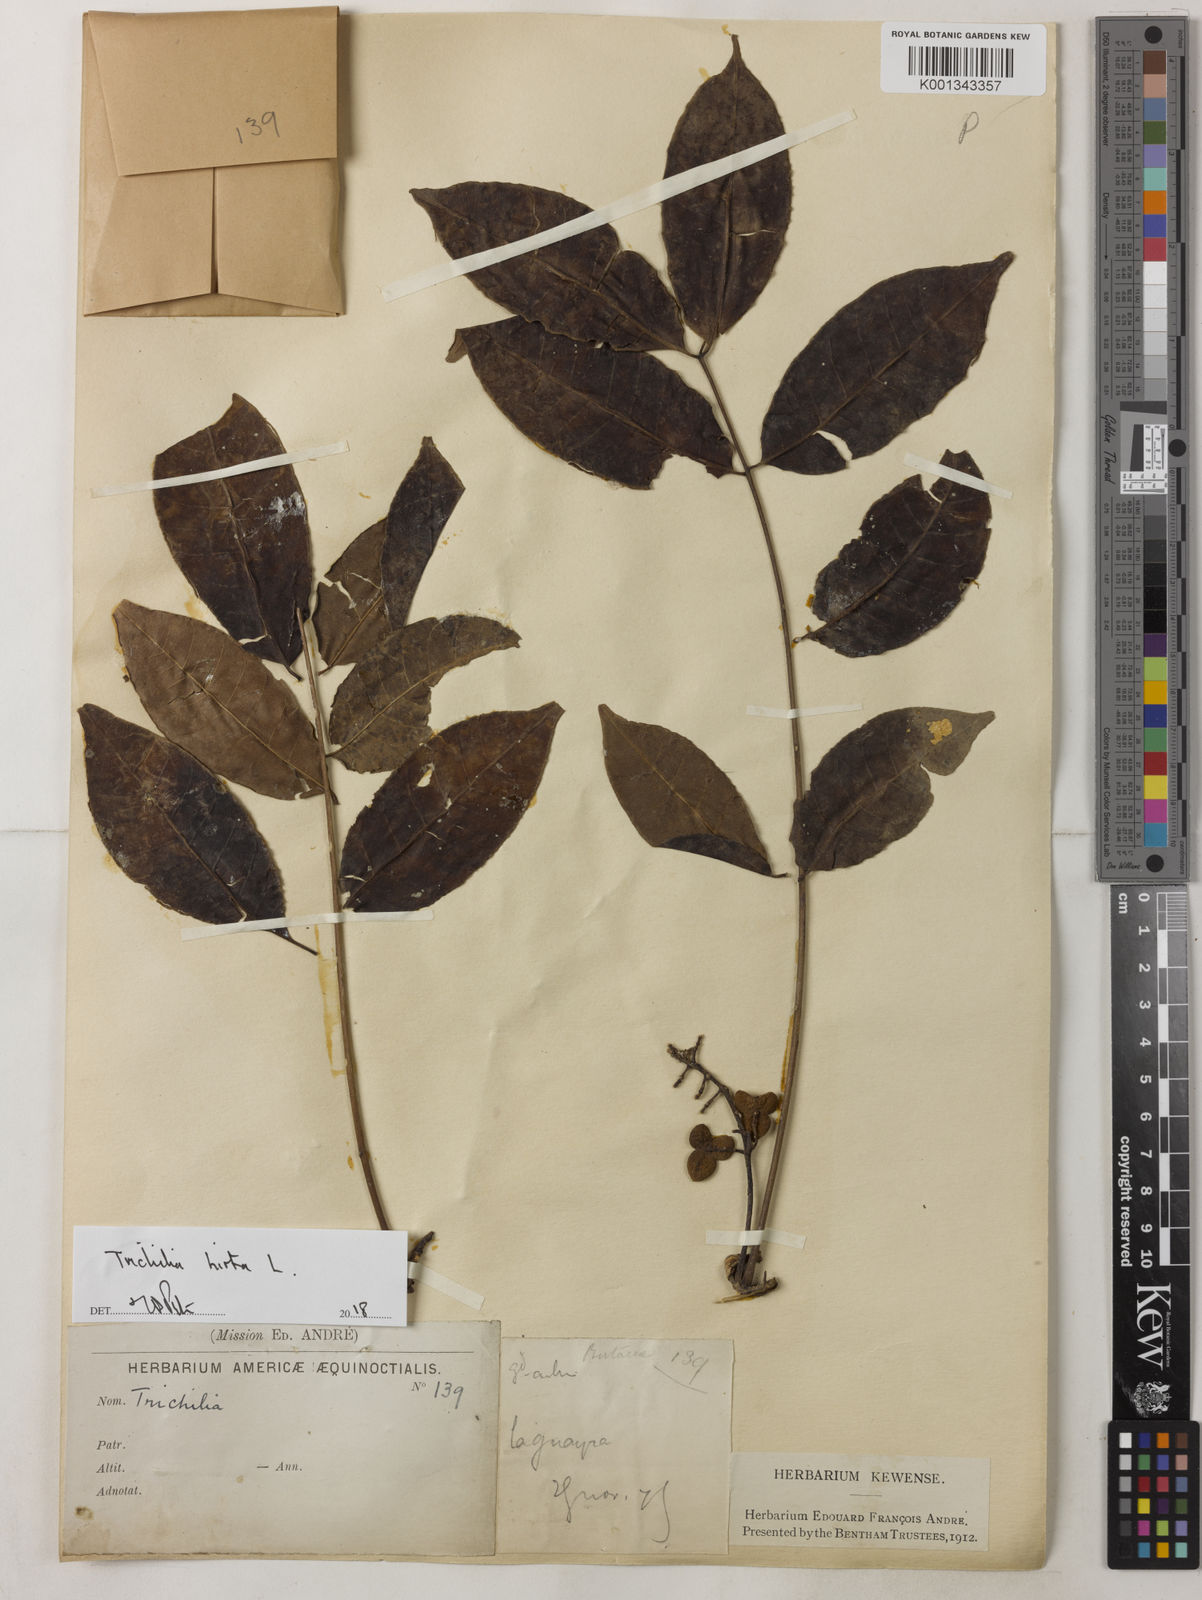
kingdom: Plantae
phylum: Tracheophyta
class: Magnoliopsida
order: Sapindales
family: Meliaceae
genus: Trichilia
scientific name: Trichilia hirta
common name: Red-cedar
